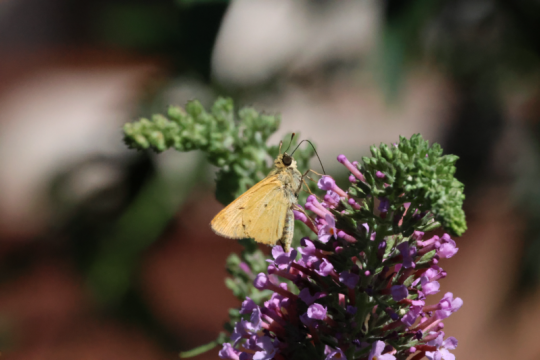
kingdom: Animalia
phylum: Arthropoda
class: Insecta
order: Lepidoptera
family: Hesperiidae
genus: Hylephila
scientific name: Hylephila phyleus
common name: Fiery Skipper
